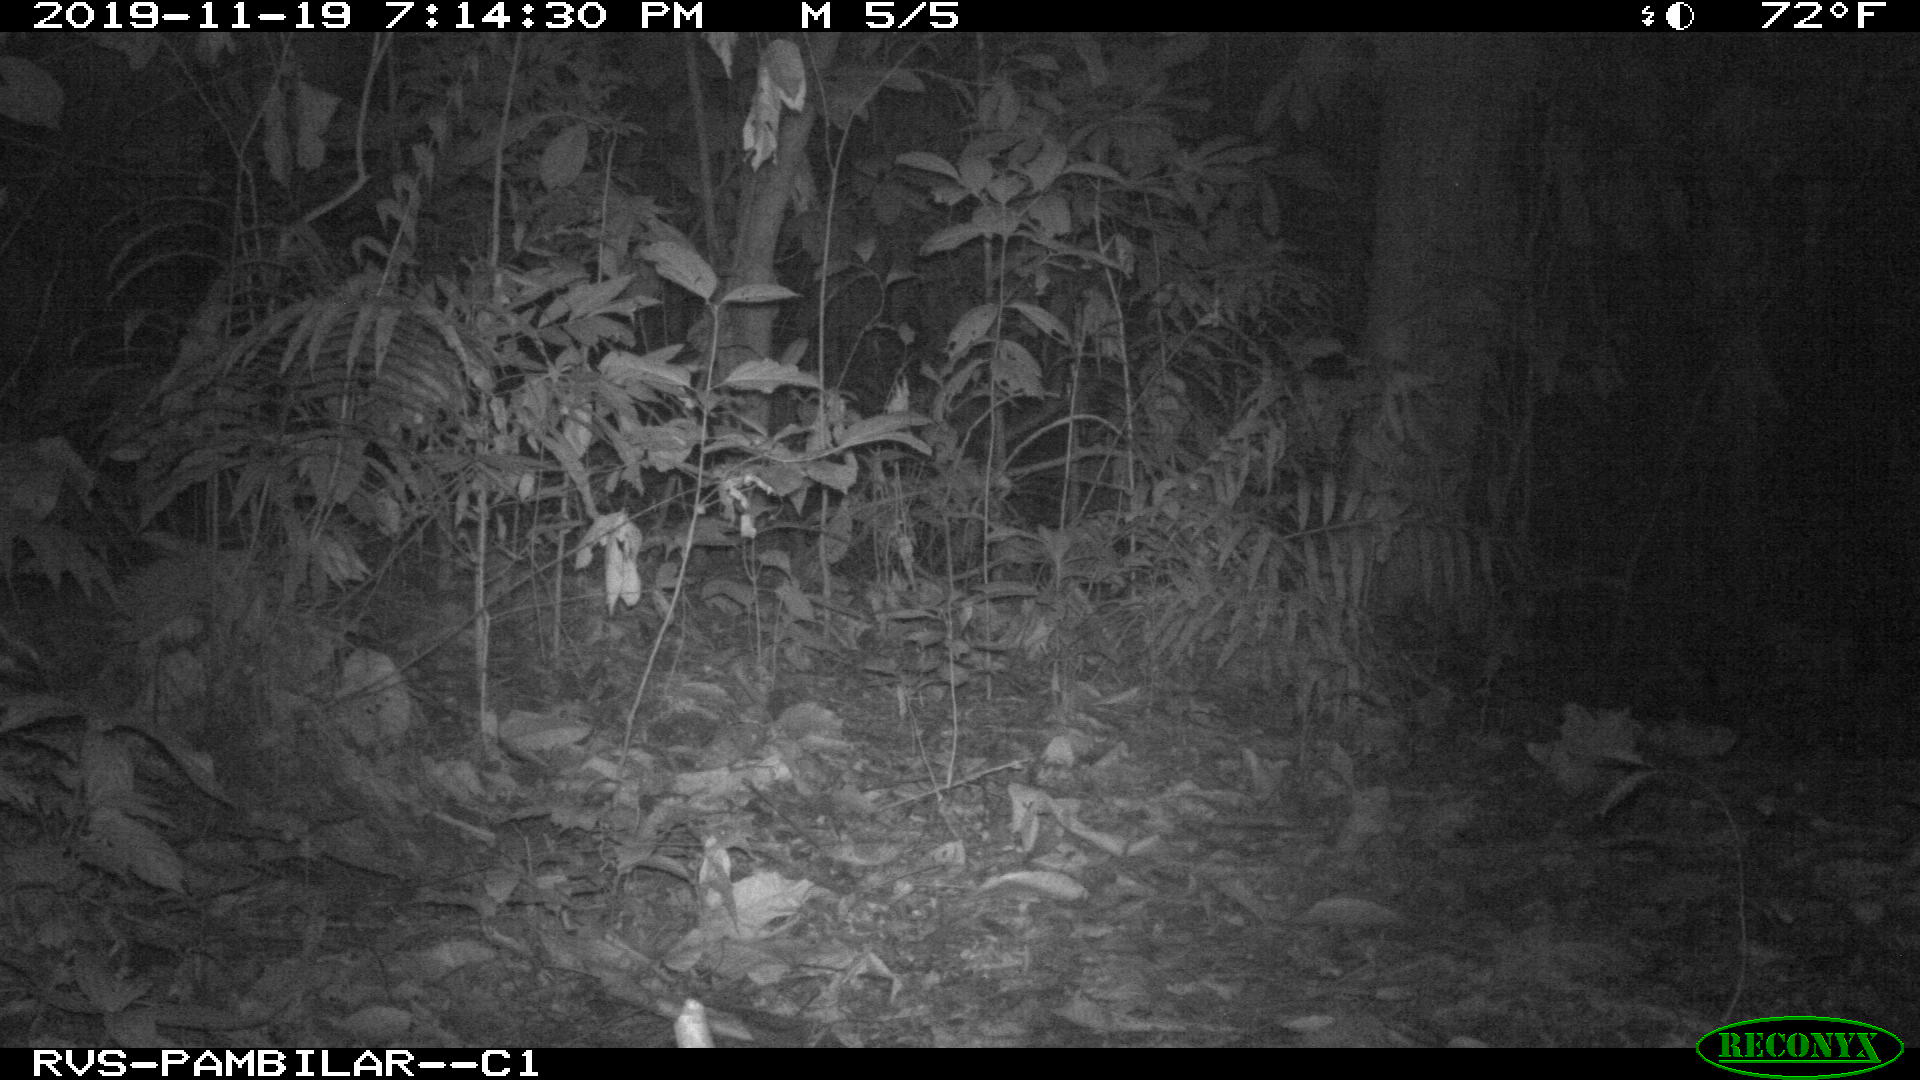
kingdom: Animalia
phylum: Chordata
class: Mammalia
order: Rodentia
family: Cuniculidae
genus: Cuniculus
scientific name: Cuniculus paca
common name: Lowland paca
